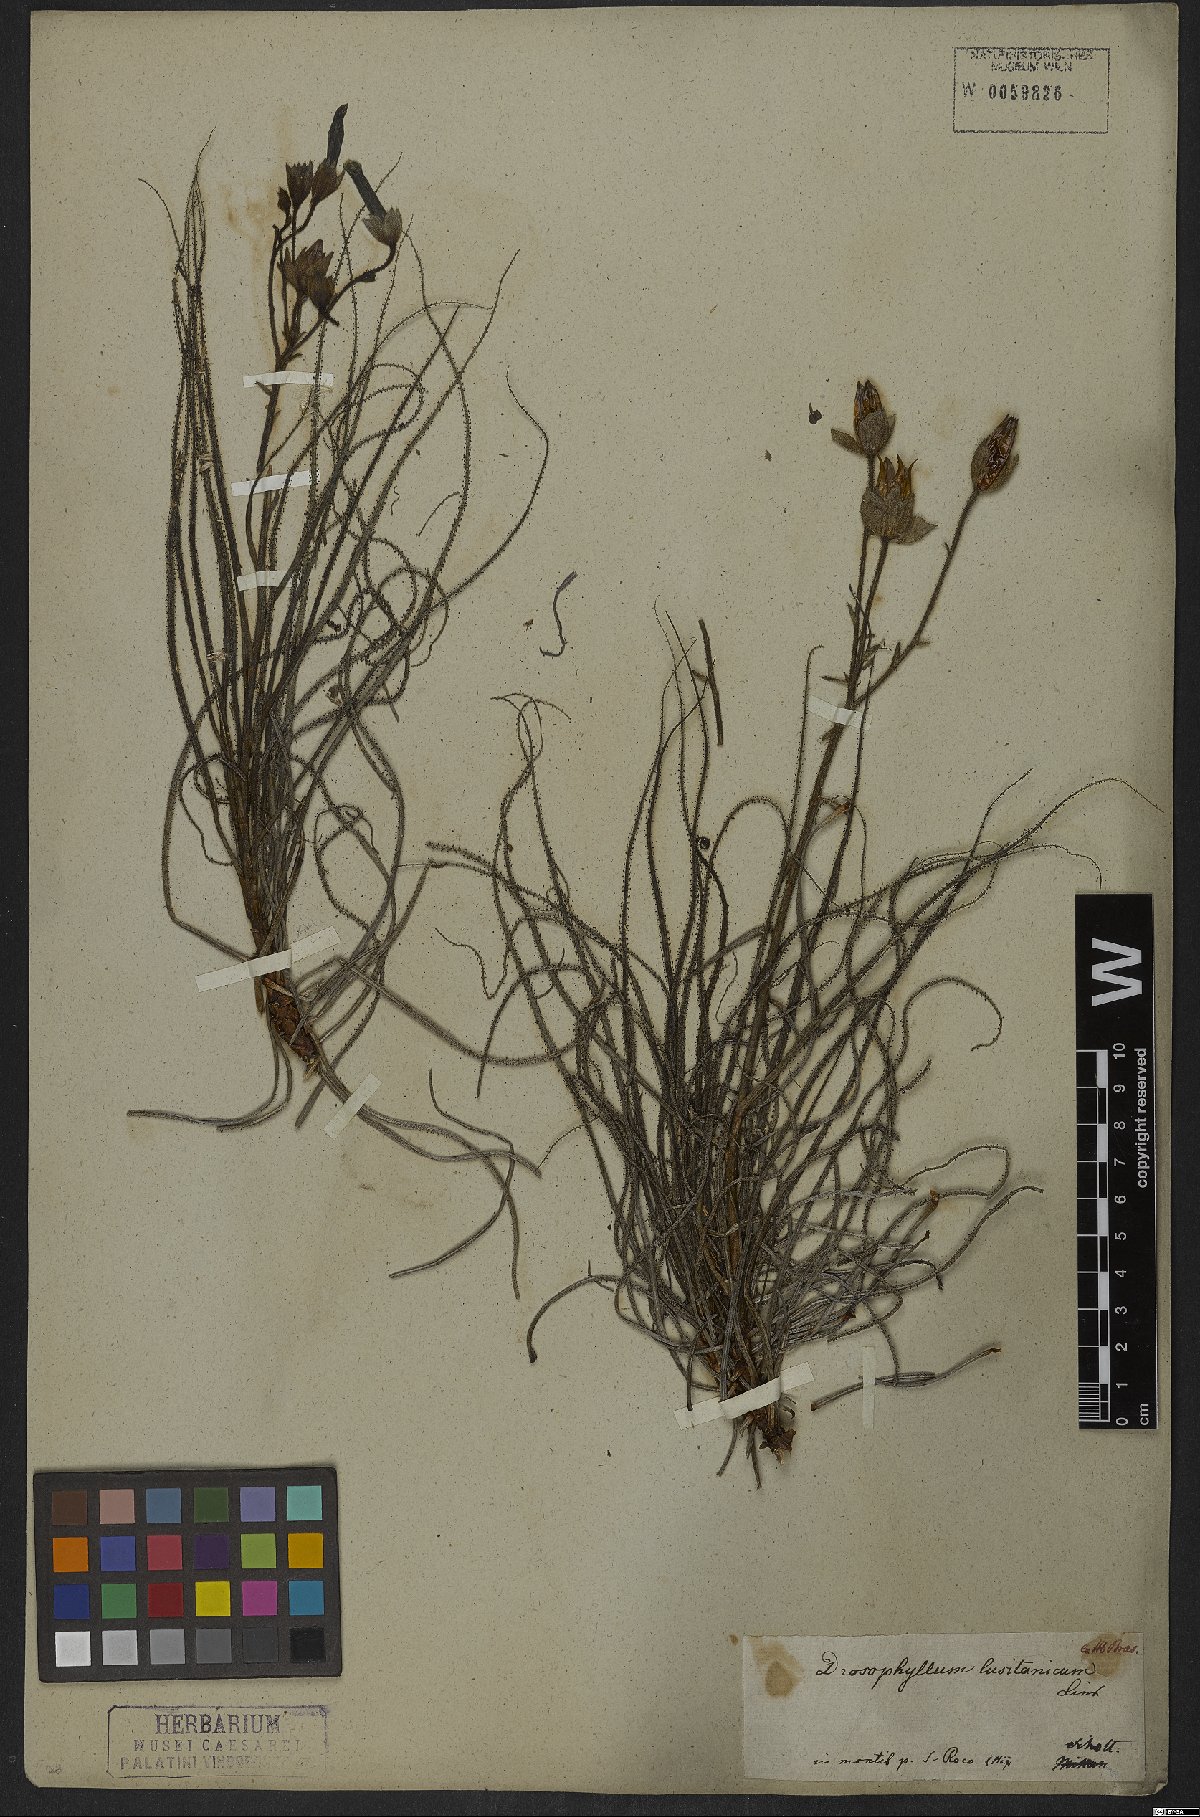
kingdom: Plantae
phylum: Tracheophyta
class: Magnoliopsida
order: Caryophyllales
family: Drosophyllaceae
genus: Drosophyllum
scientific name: Drosophyllum lusitanicum
